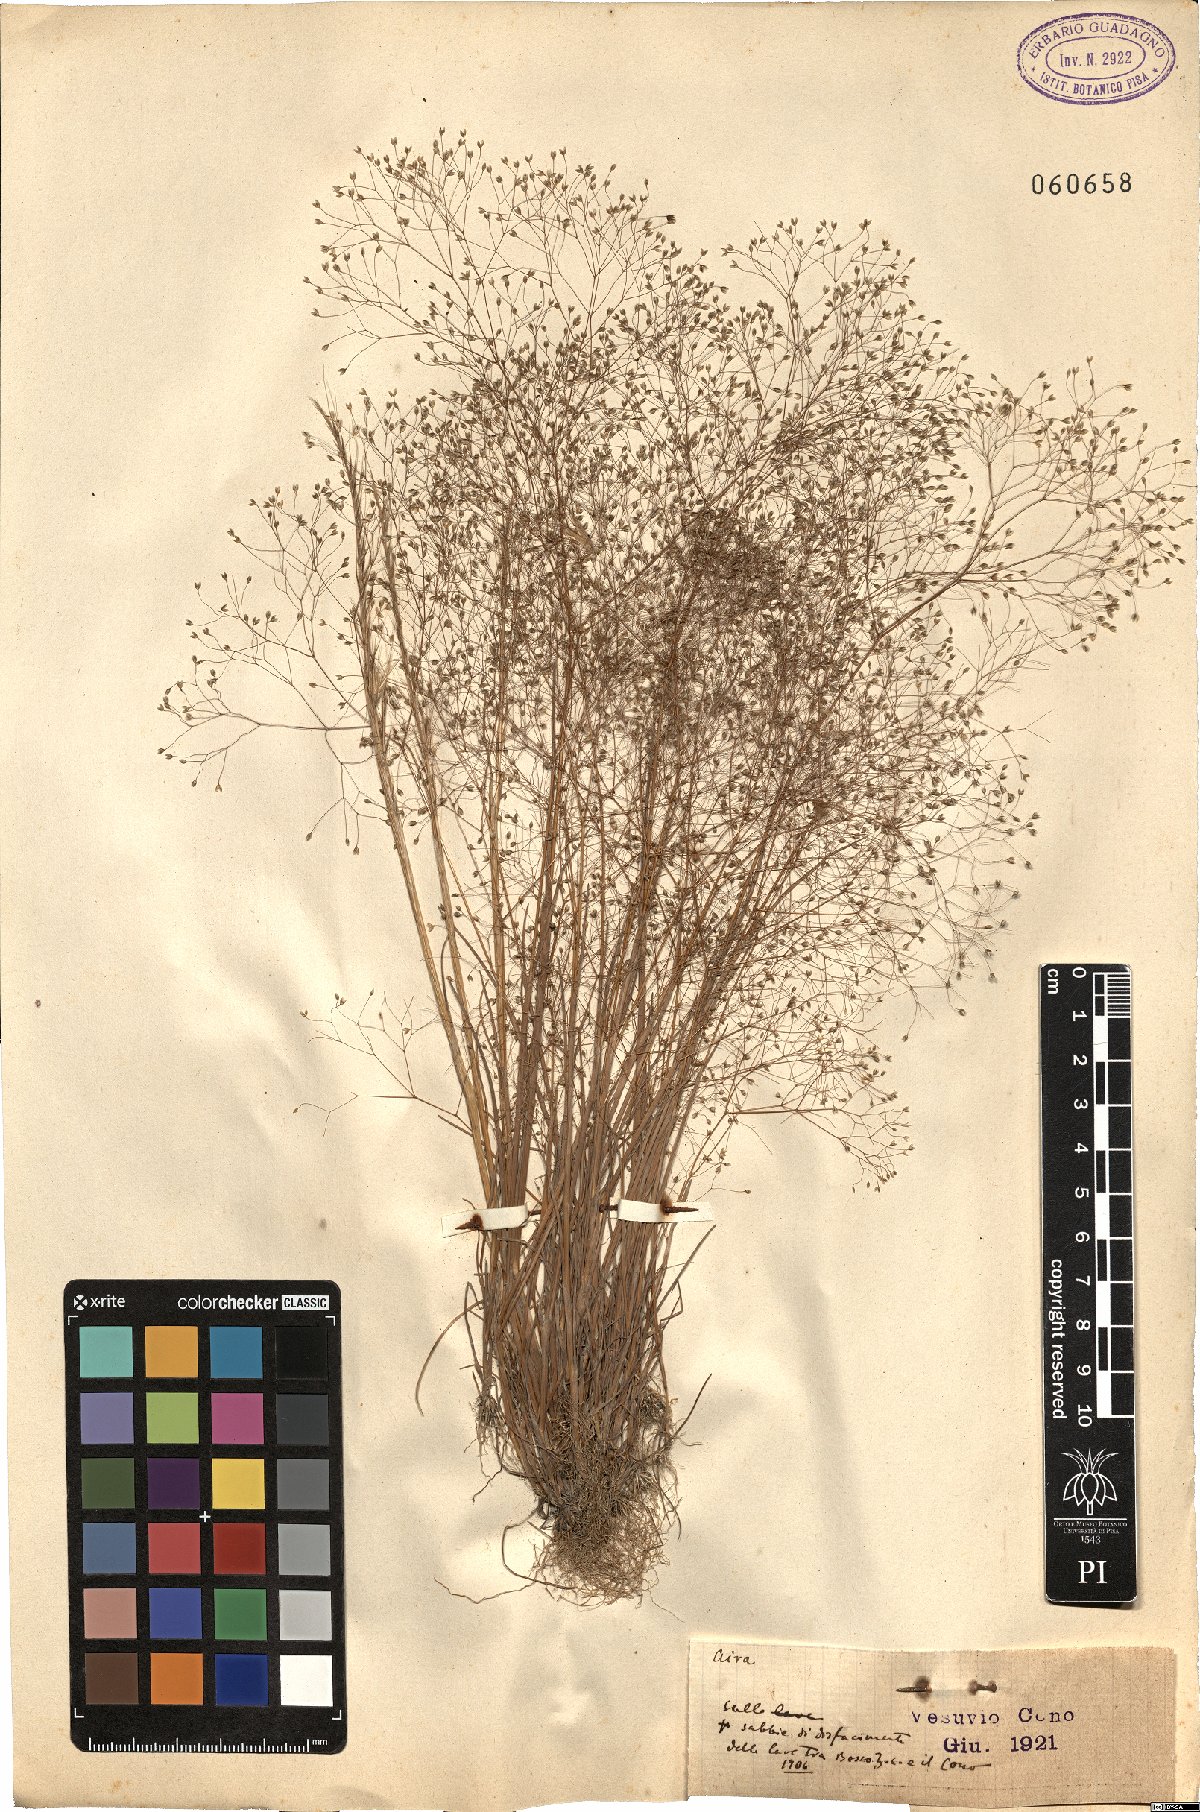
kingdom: Plantae
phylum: Tracheophyta
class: Liliopsida
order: Poales
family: Poaceae
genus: Aira
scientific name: Aira
